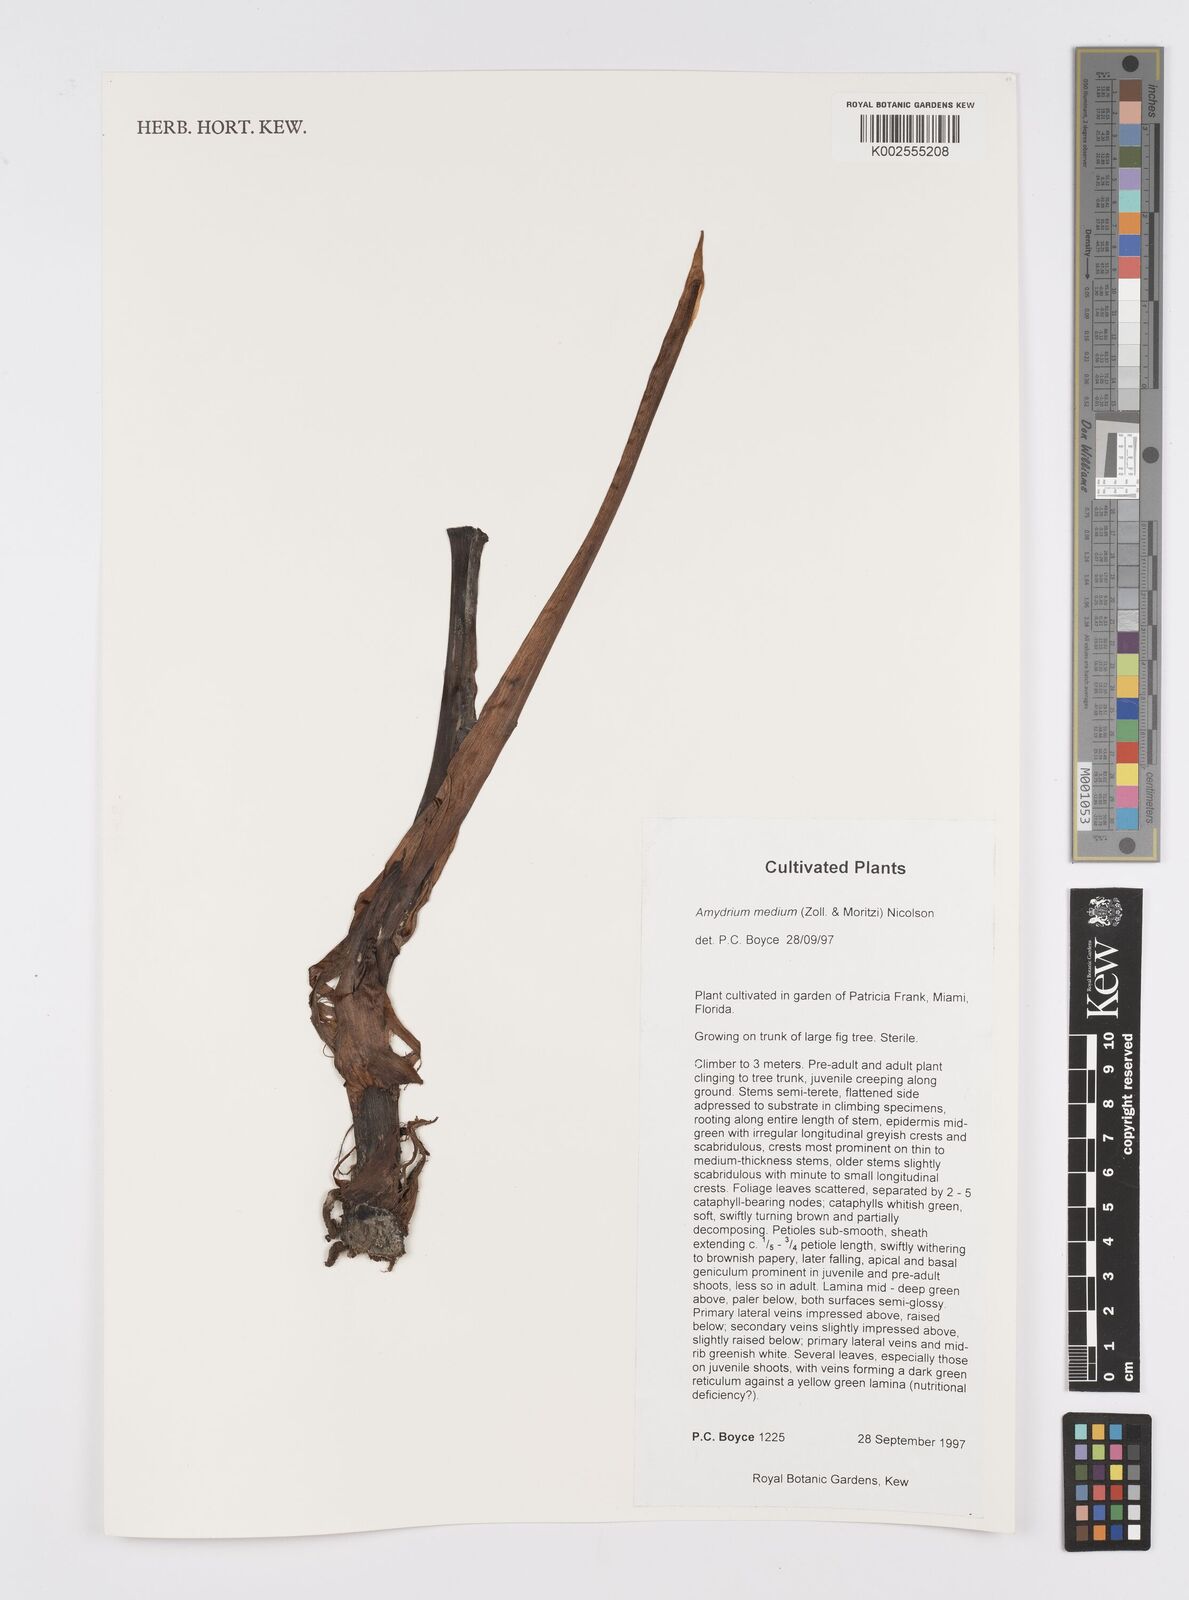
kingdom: Plantae
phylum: Tracheophyta
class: Liliopsida
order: Alismatales
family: Araceae
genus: Amydrium
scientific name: Amydrium medium
